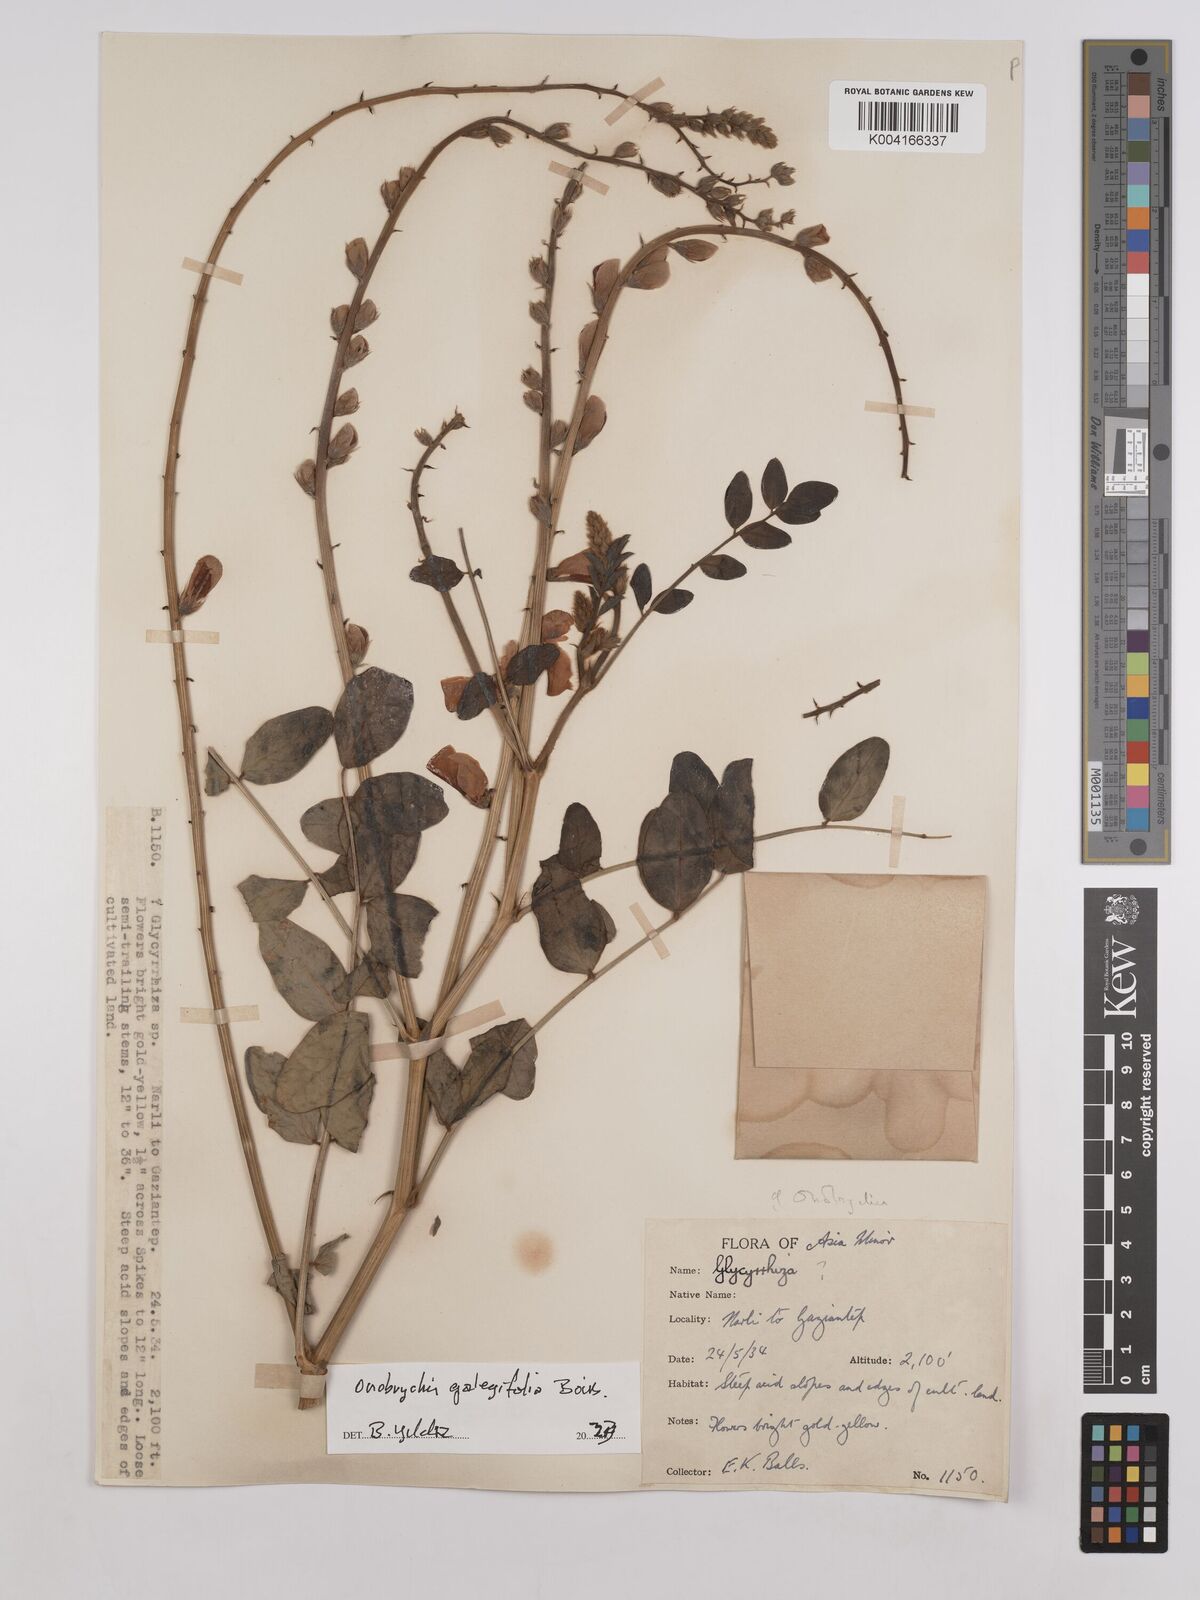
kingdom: Plantae
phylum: Tracheophyta
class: Magnoliopsida
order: Fabales
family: Fabaceae
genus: Onobrychis
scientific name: Onobrychis galegifolia
